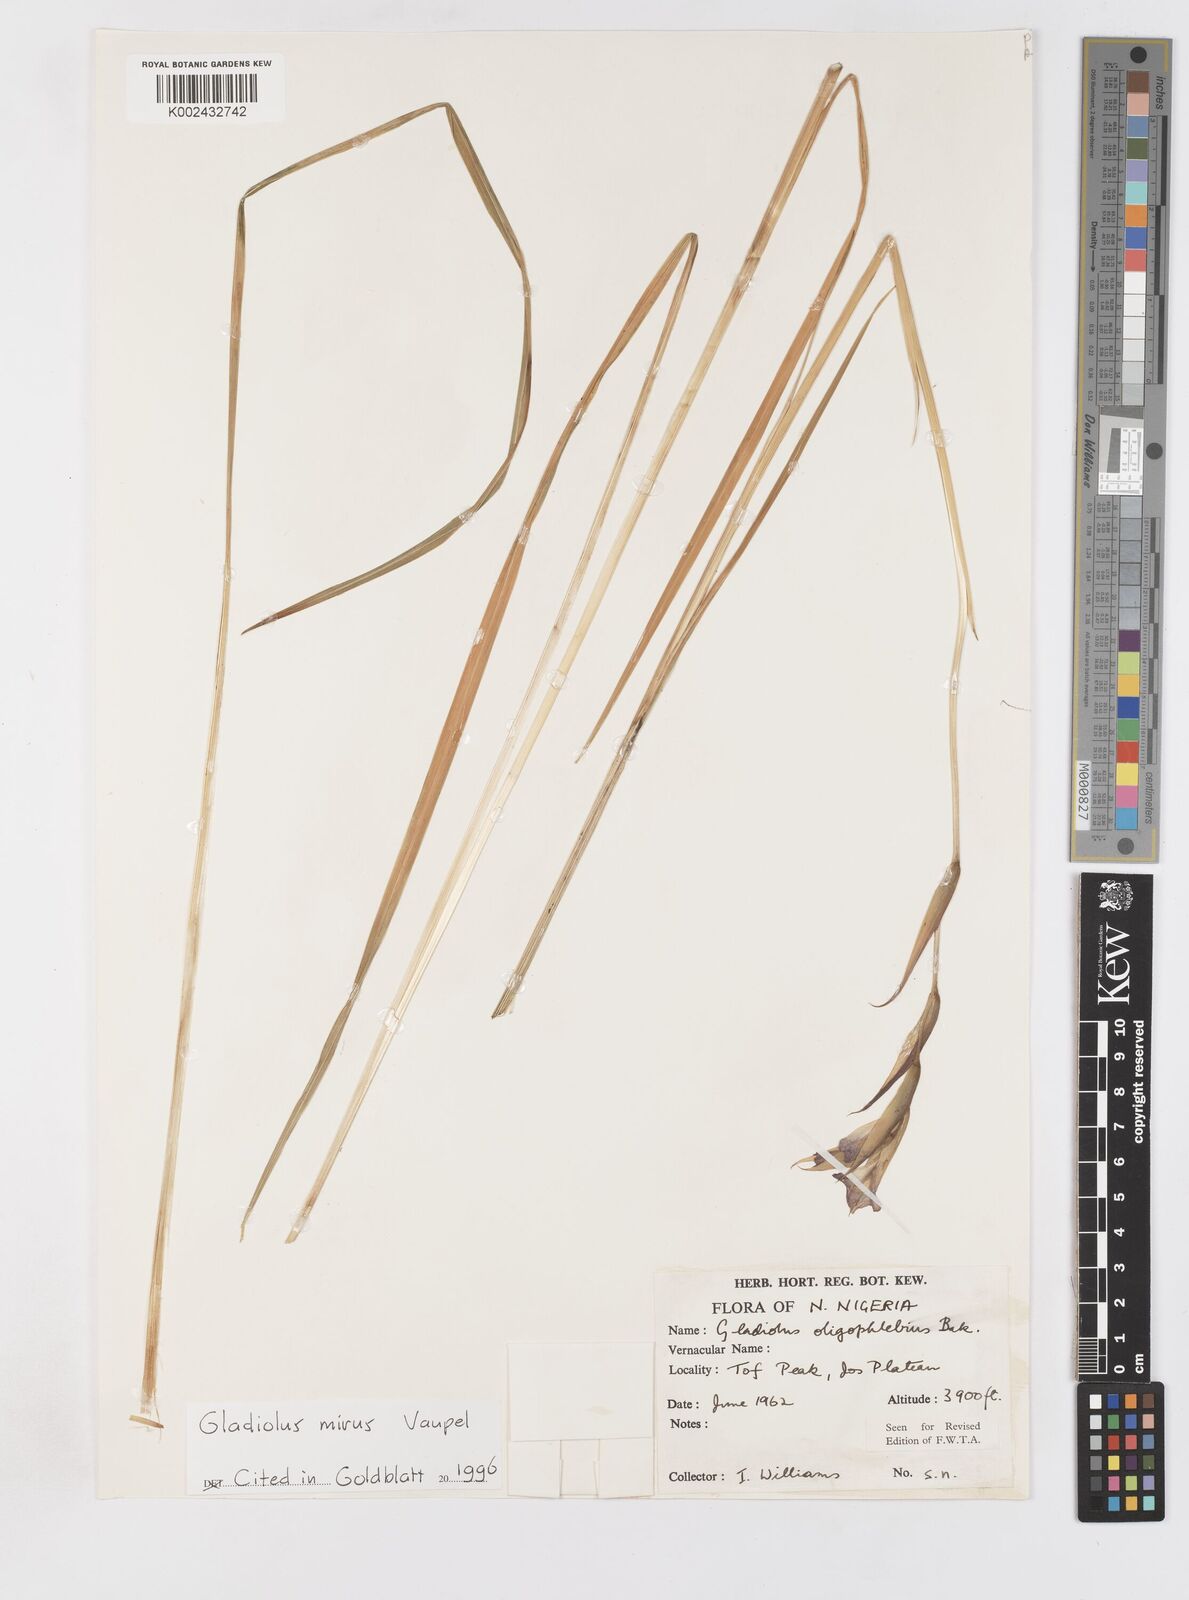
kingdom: Plantae
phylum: Tracheophyta
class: Liliopsida
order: Asparagales
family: Iridaceae
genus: Gladiolus
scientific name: Gladiolus mirus
